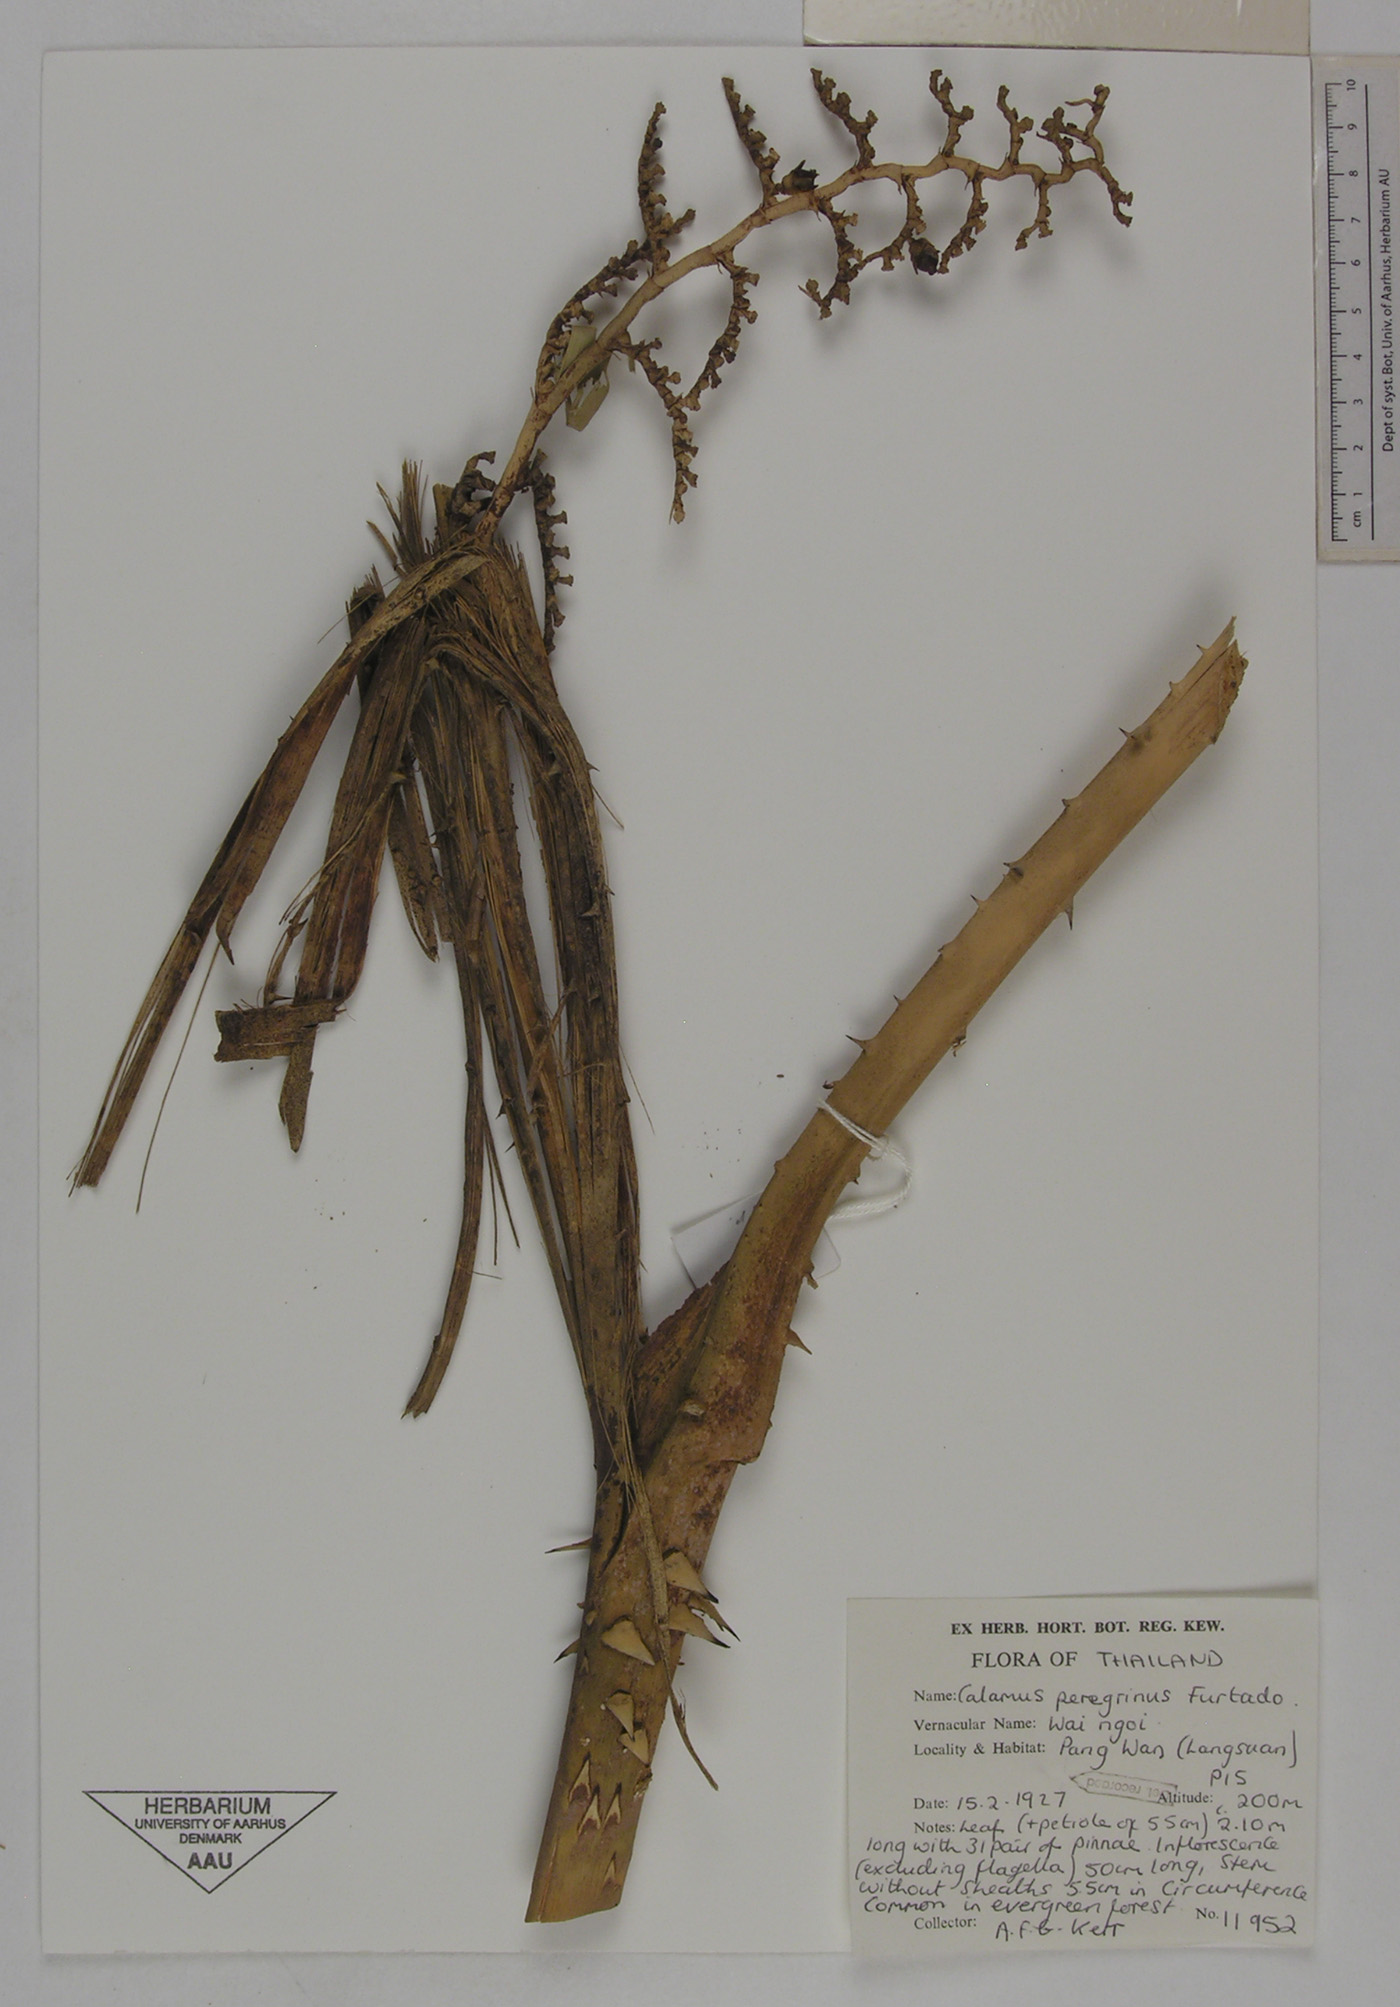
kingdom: Plantae
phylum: Tracheophyta
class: Liliopsida
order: Arecales
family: Arecaceae
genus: Calamus
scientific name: Calamus peregrinus
